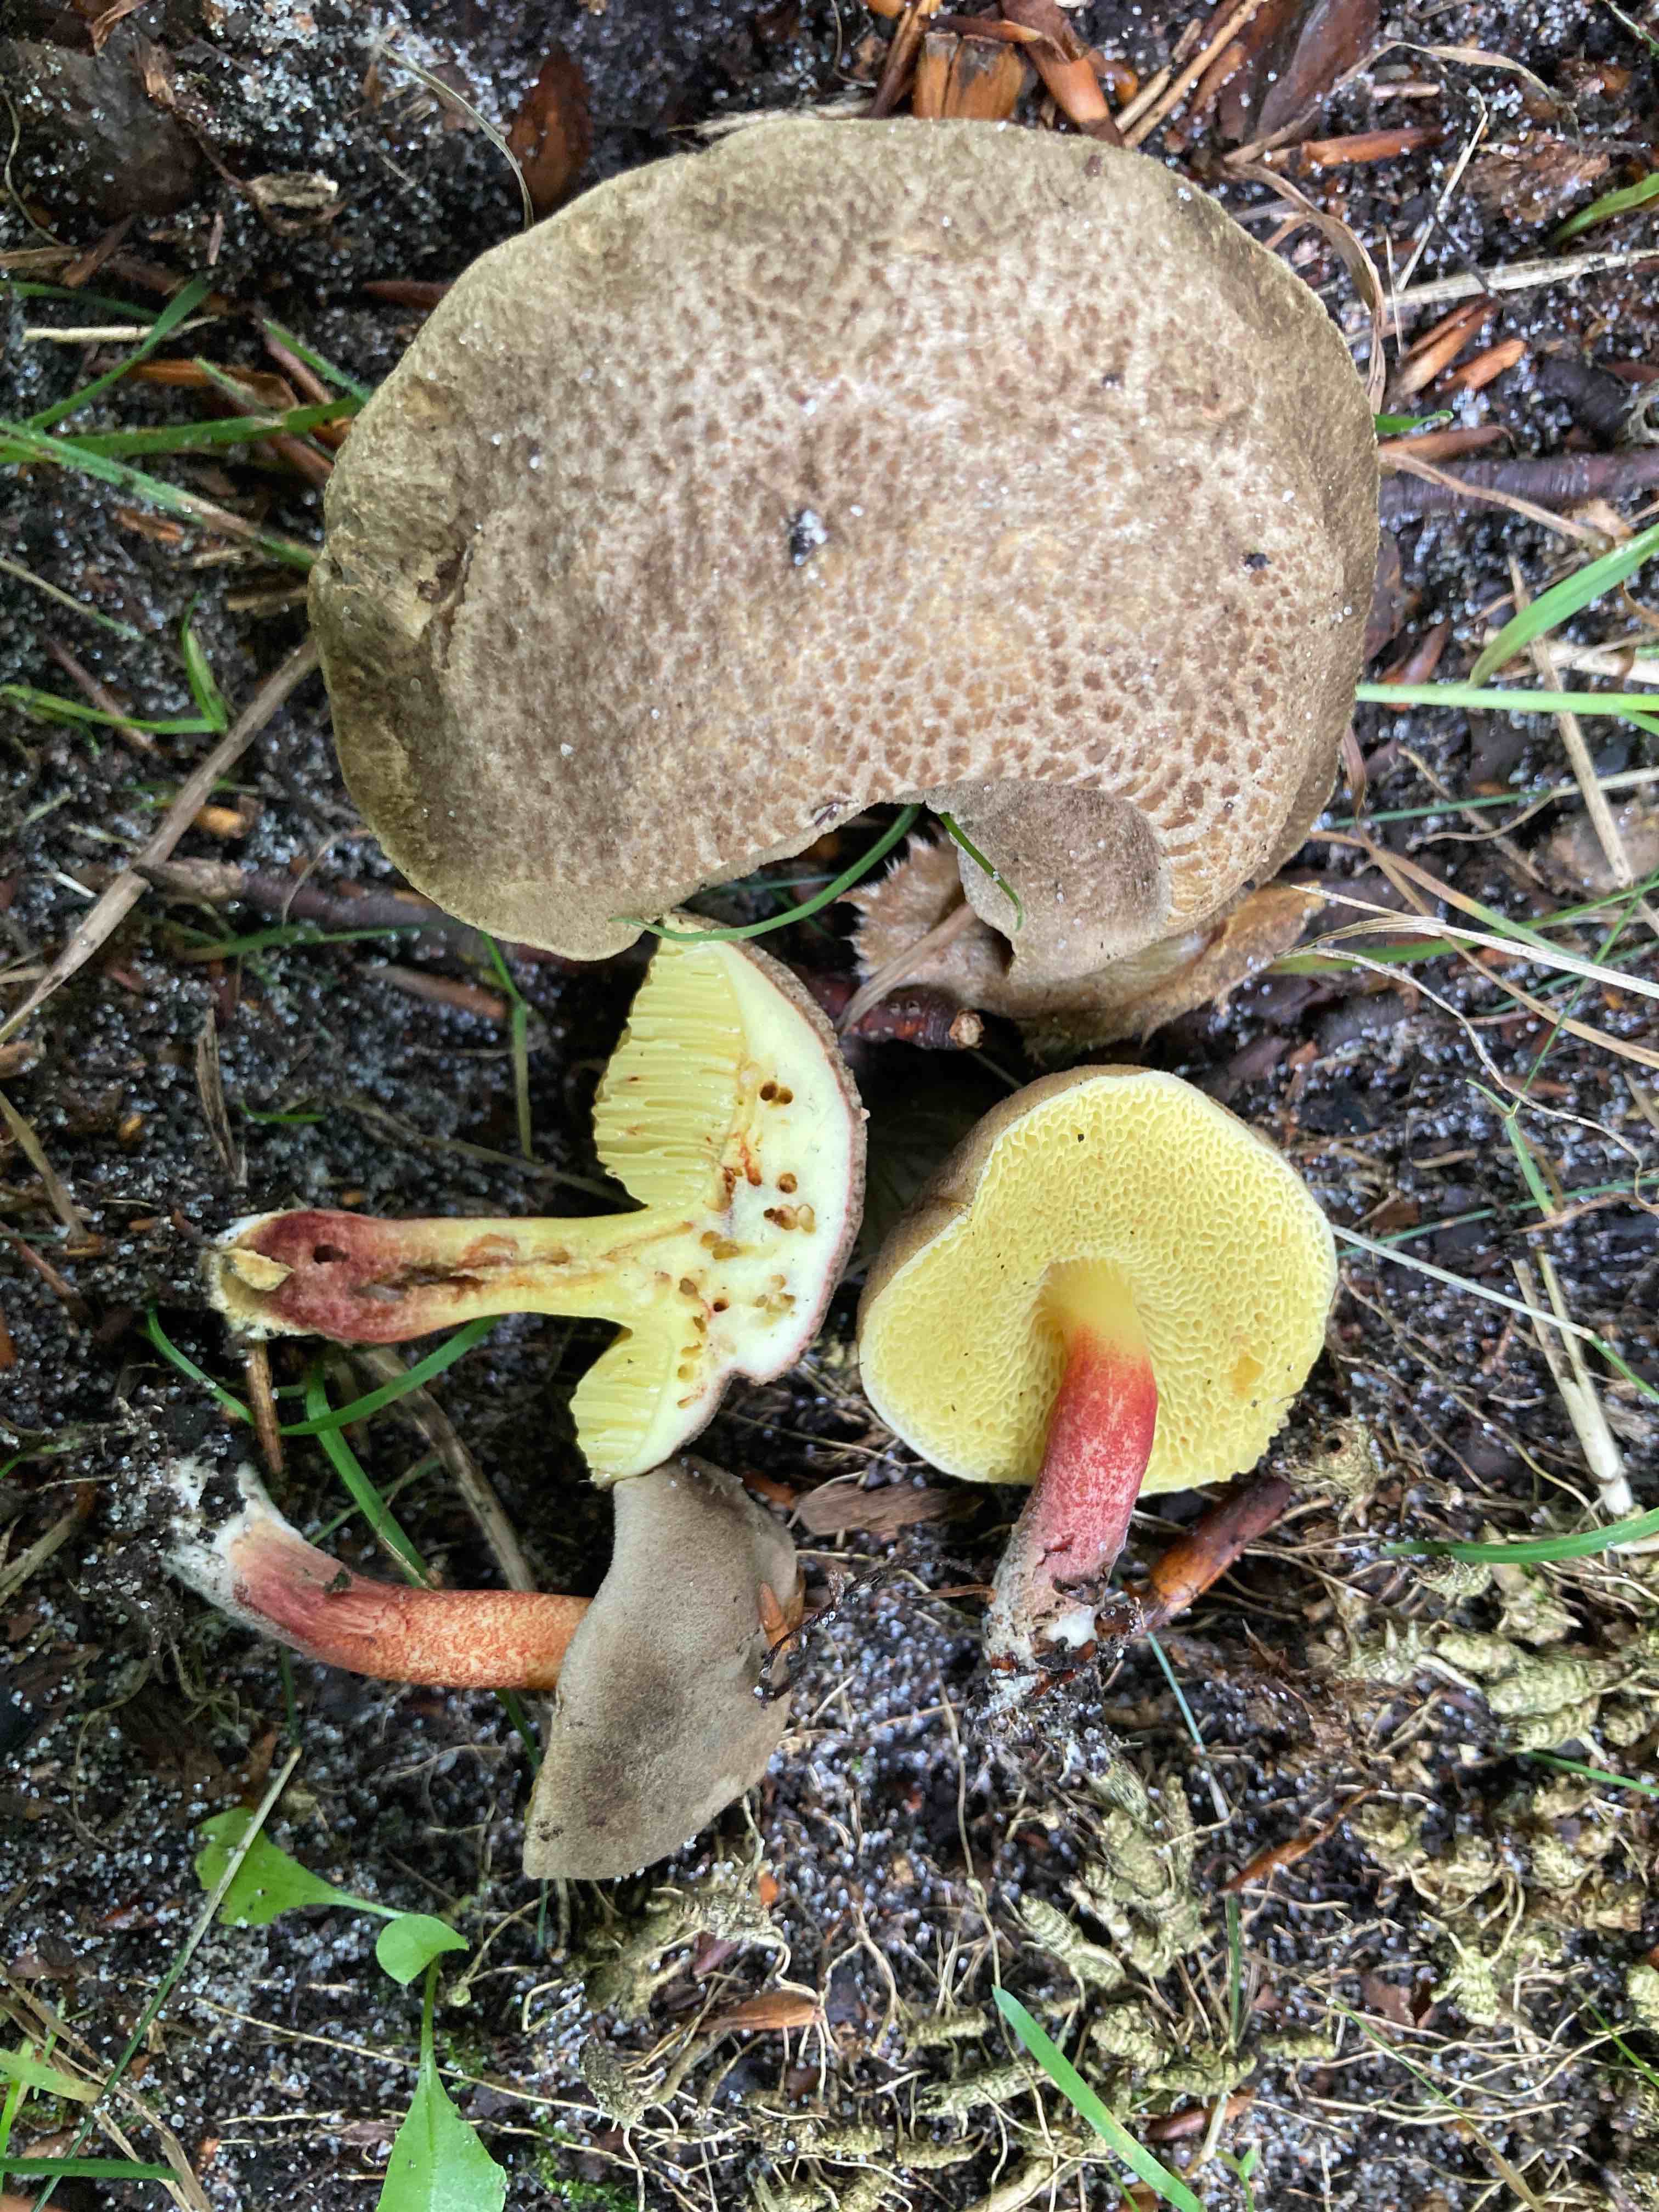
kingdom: Fungi
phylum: Basidiomycota
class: Agaricomycetes
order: Boletales
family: Boletaceae
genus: Xerocomellus
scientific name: Xerocomellus chrysenteron
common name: rødsprukken rørhat
